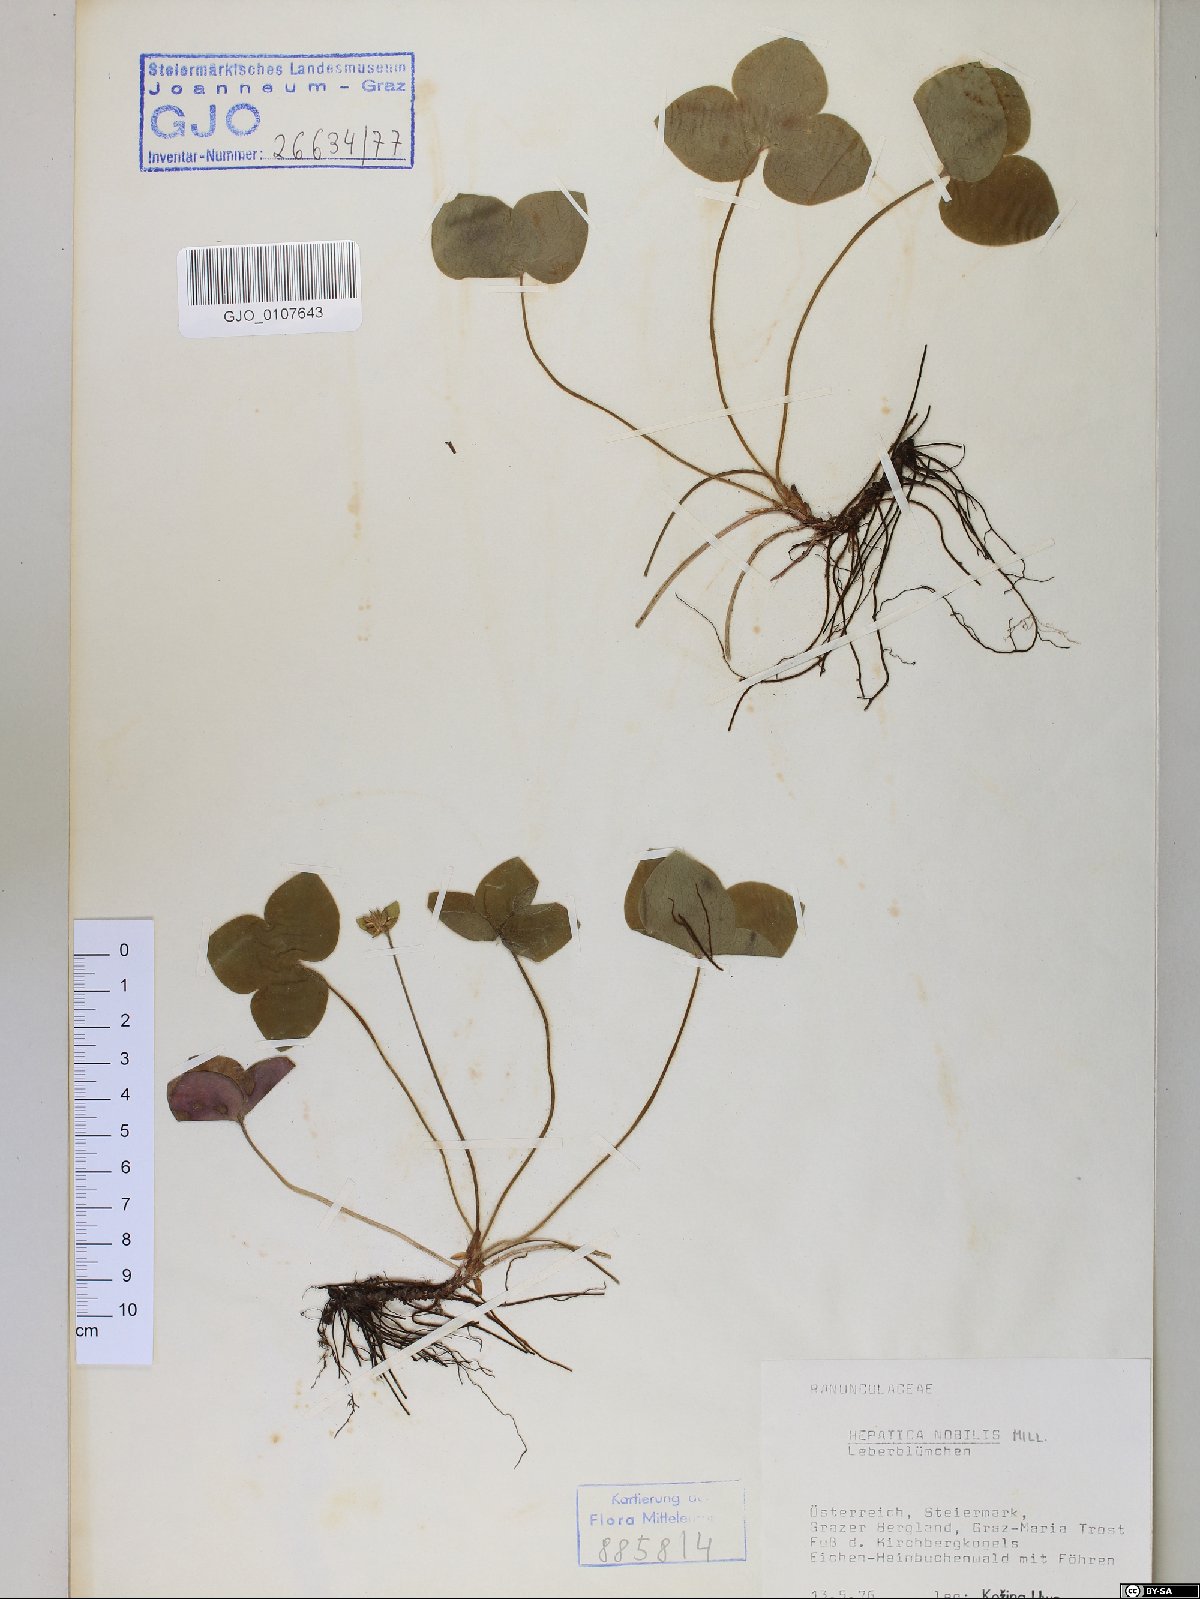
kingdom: Plantae
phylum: Tracheophyta
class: Magnoliopsida
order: Ranunculales
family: Ranunculaceae
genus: Hepatica
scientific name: Hepatica nobilis
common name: Liverleaf
